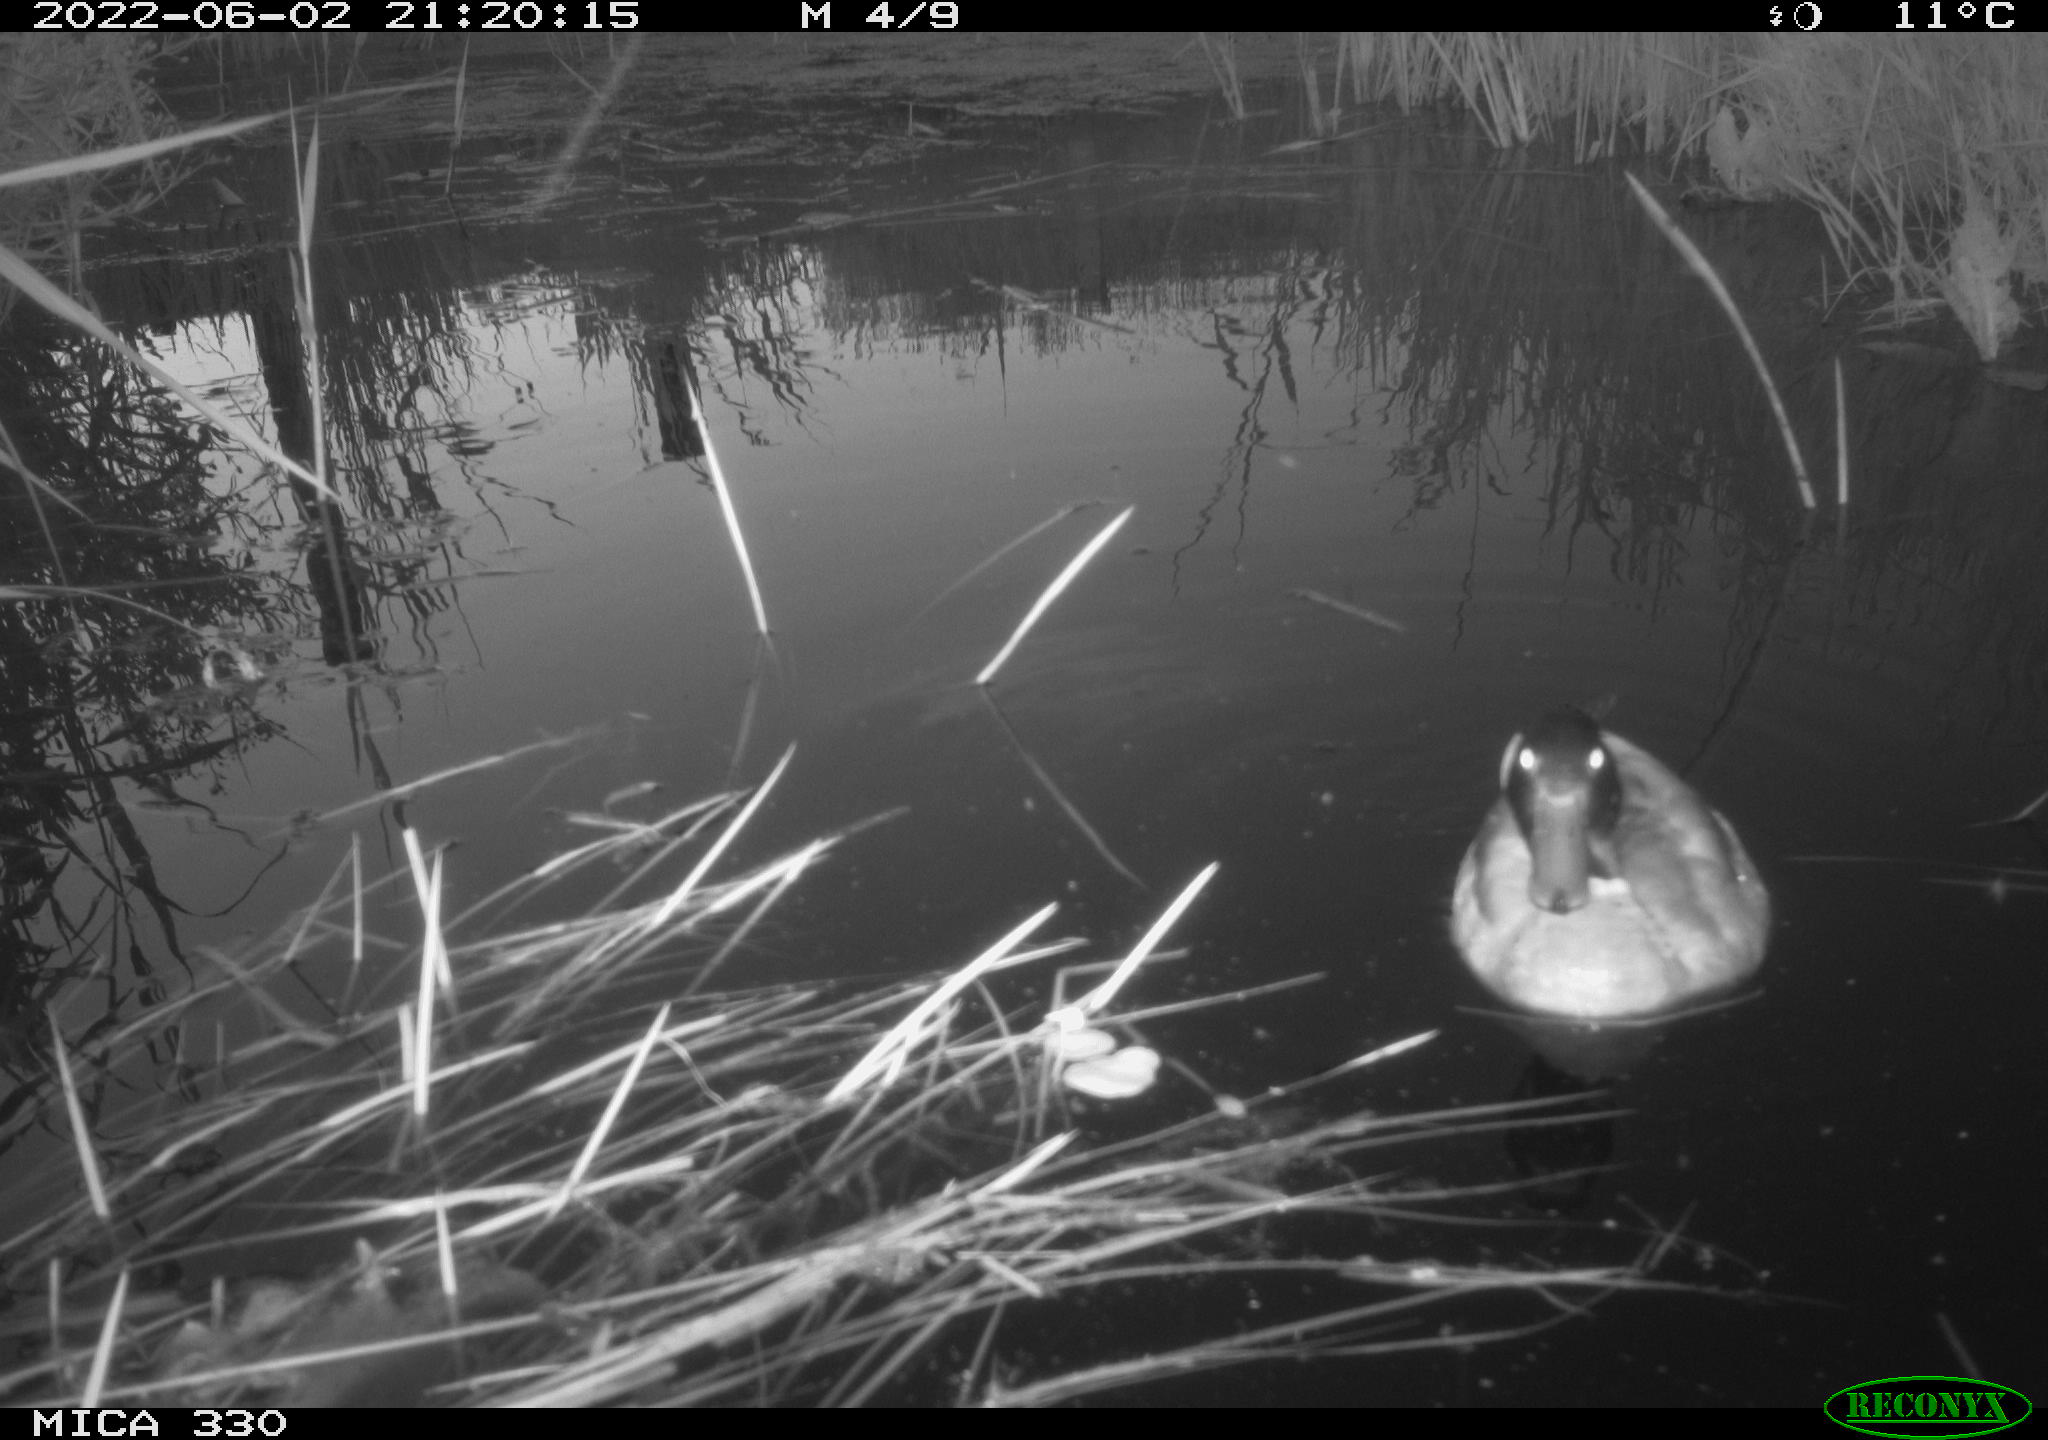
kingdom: Animalia
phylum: Chordata
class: Aves
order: Anseriformes
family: Anatidae
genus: Anas
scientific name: Anas platyrhynchos
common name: Mallard
